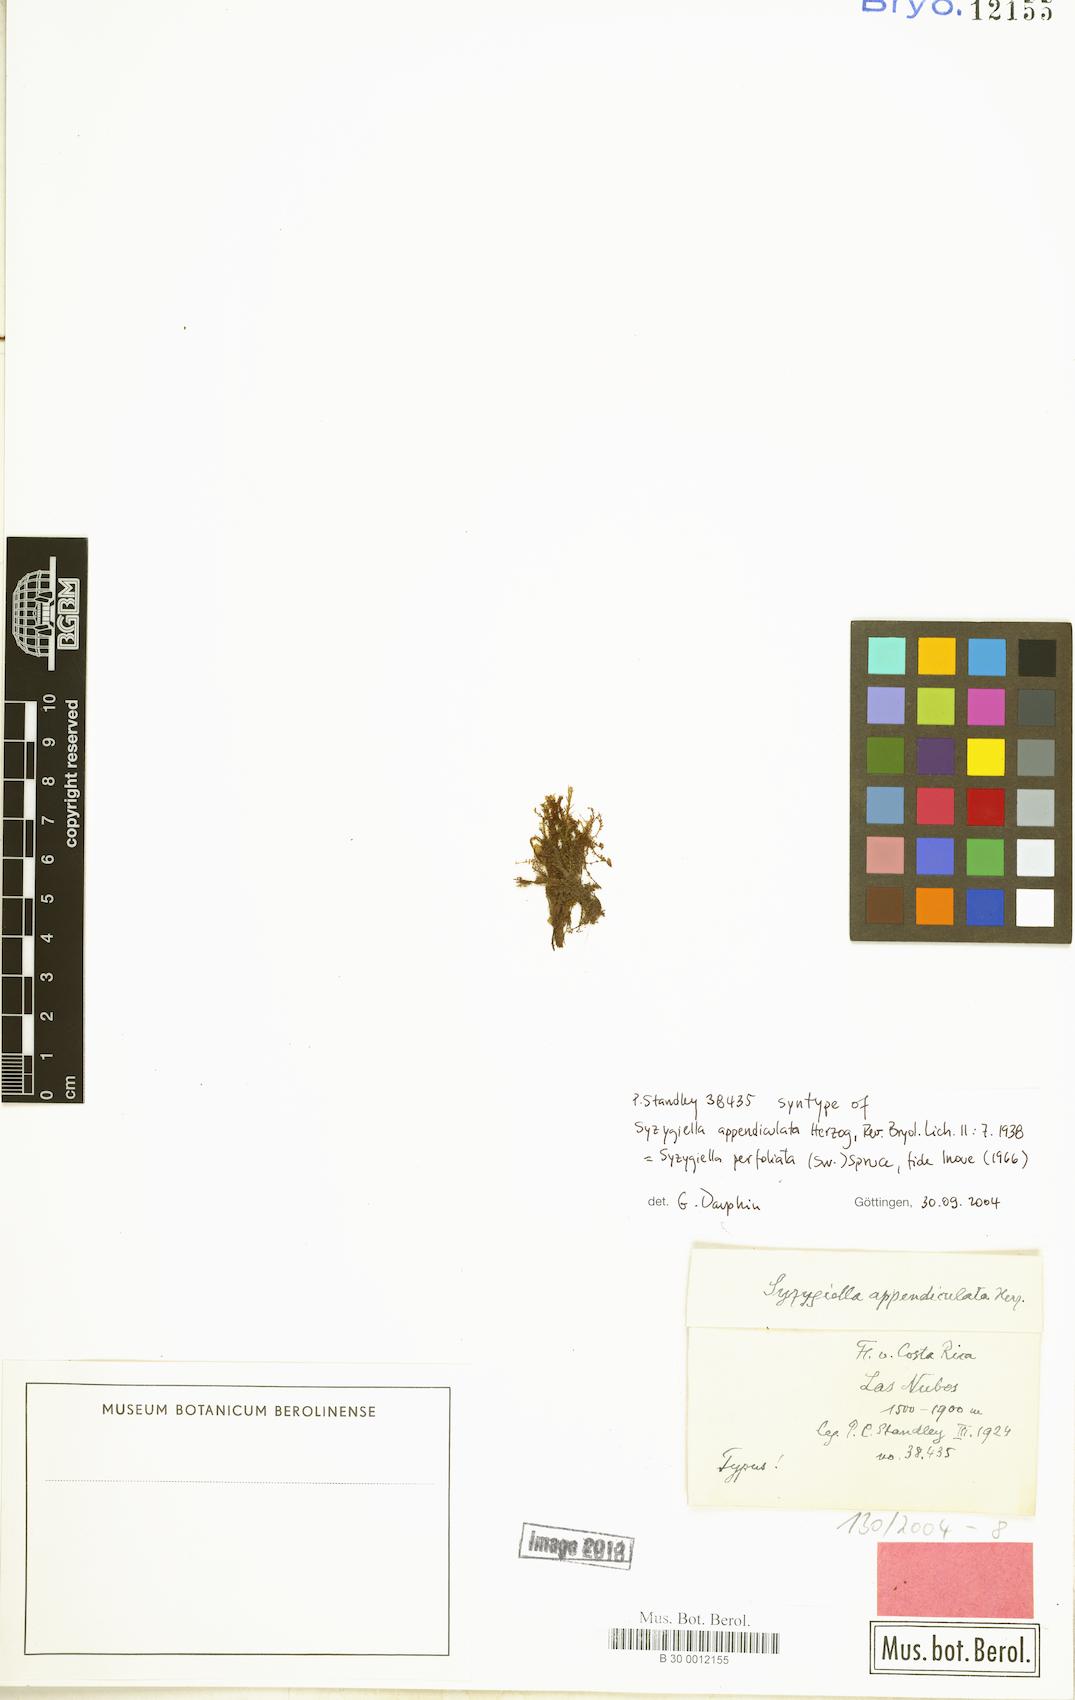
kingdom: Plantae
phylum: Marchantiophyta
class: Jungermanniopsida
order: Jungermanniales
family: Adelanthaceae
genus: Syzygiella
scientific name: Syzygiella concreta
